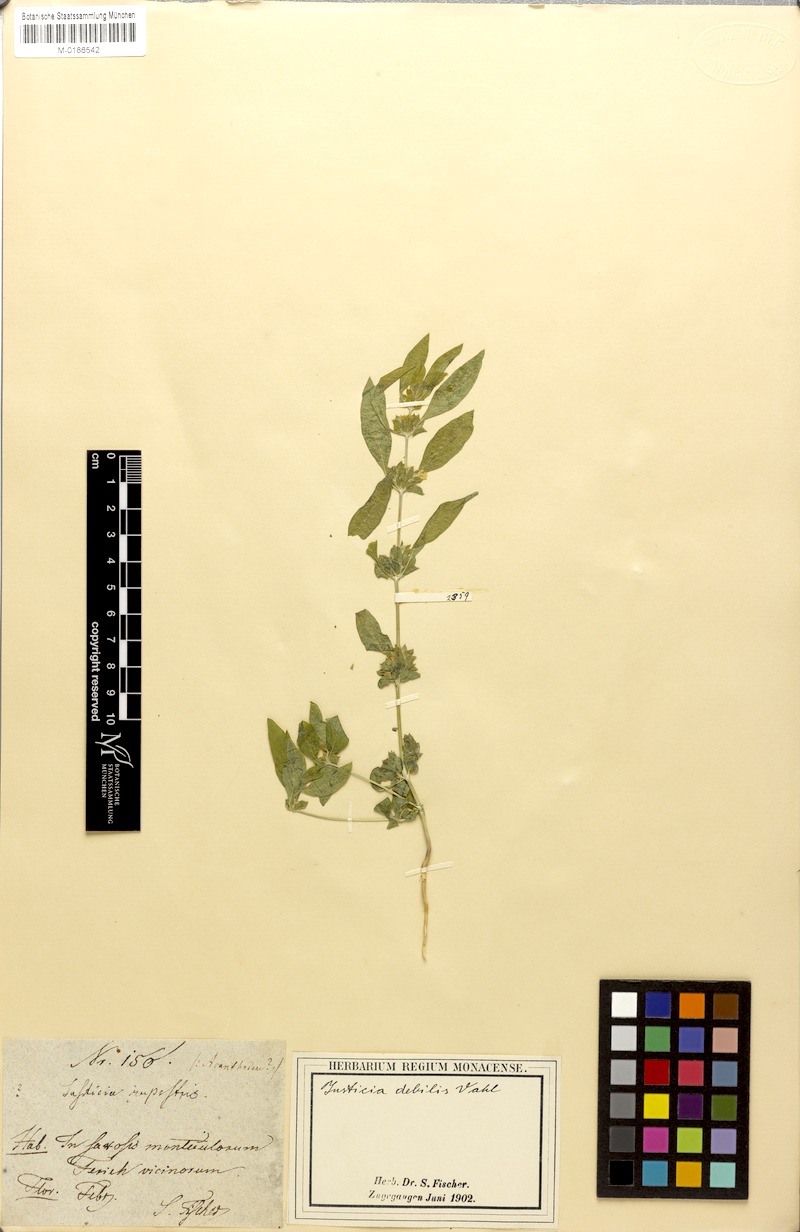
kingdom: Plantae
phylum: Tracheophyta
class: Magnoliopsida
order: Lamiales
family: Acanthaceae
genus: Monechma
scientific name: Monechma debile
